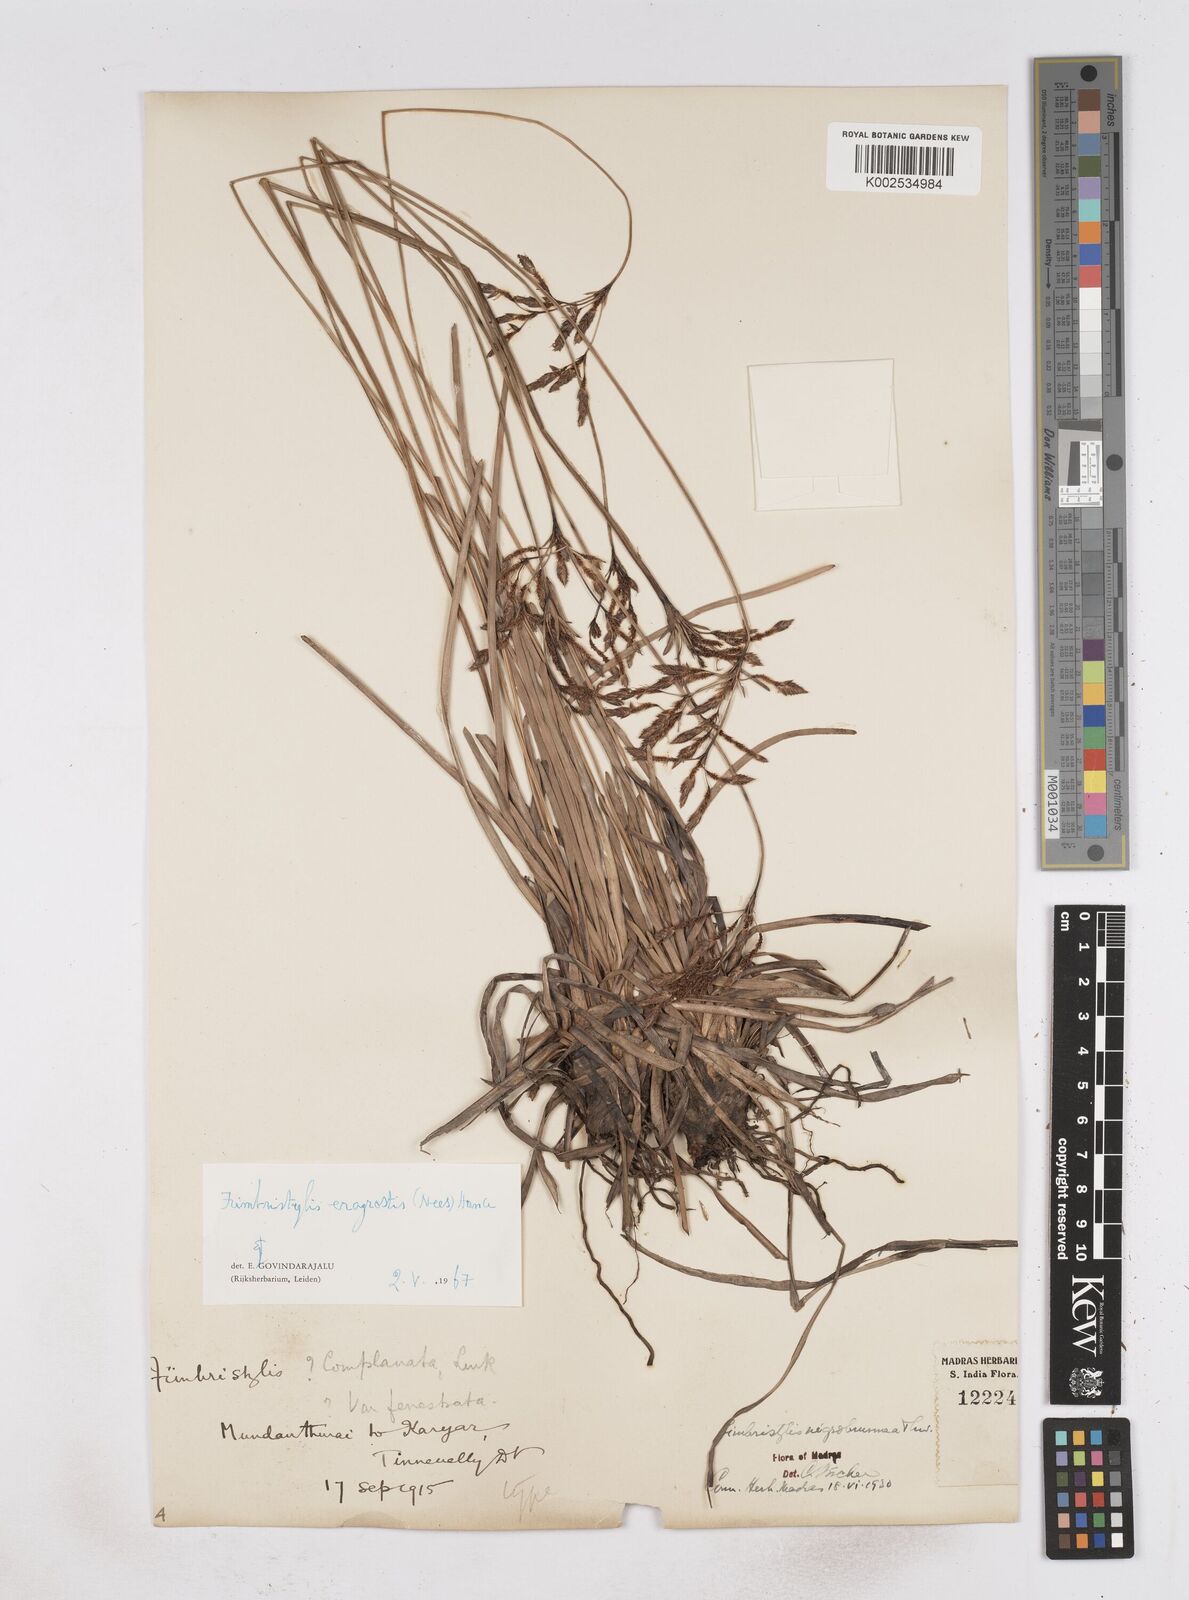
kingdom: Plantae
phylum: Tracheophyta
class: Liliopsida
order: Poales
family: Cyperaceae
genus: Fimbristylis
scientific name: Fimbristylis nigrobrunnea
